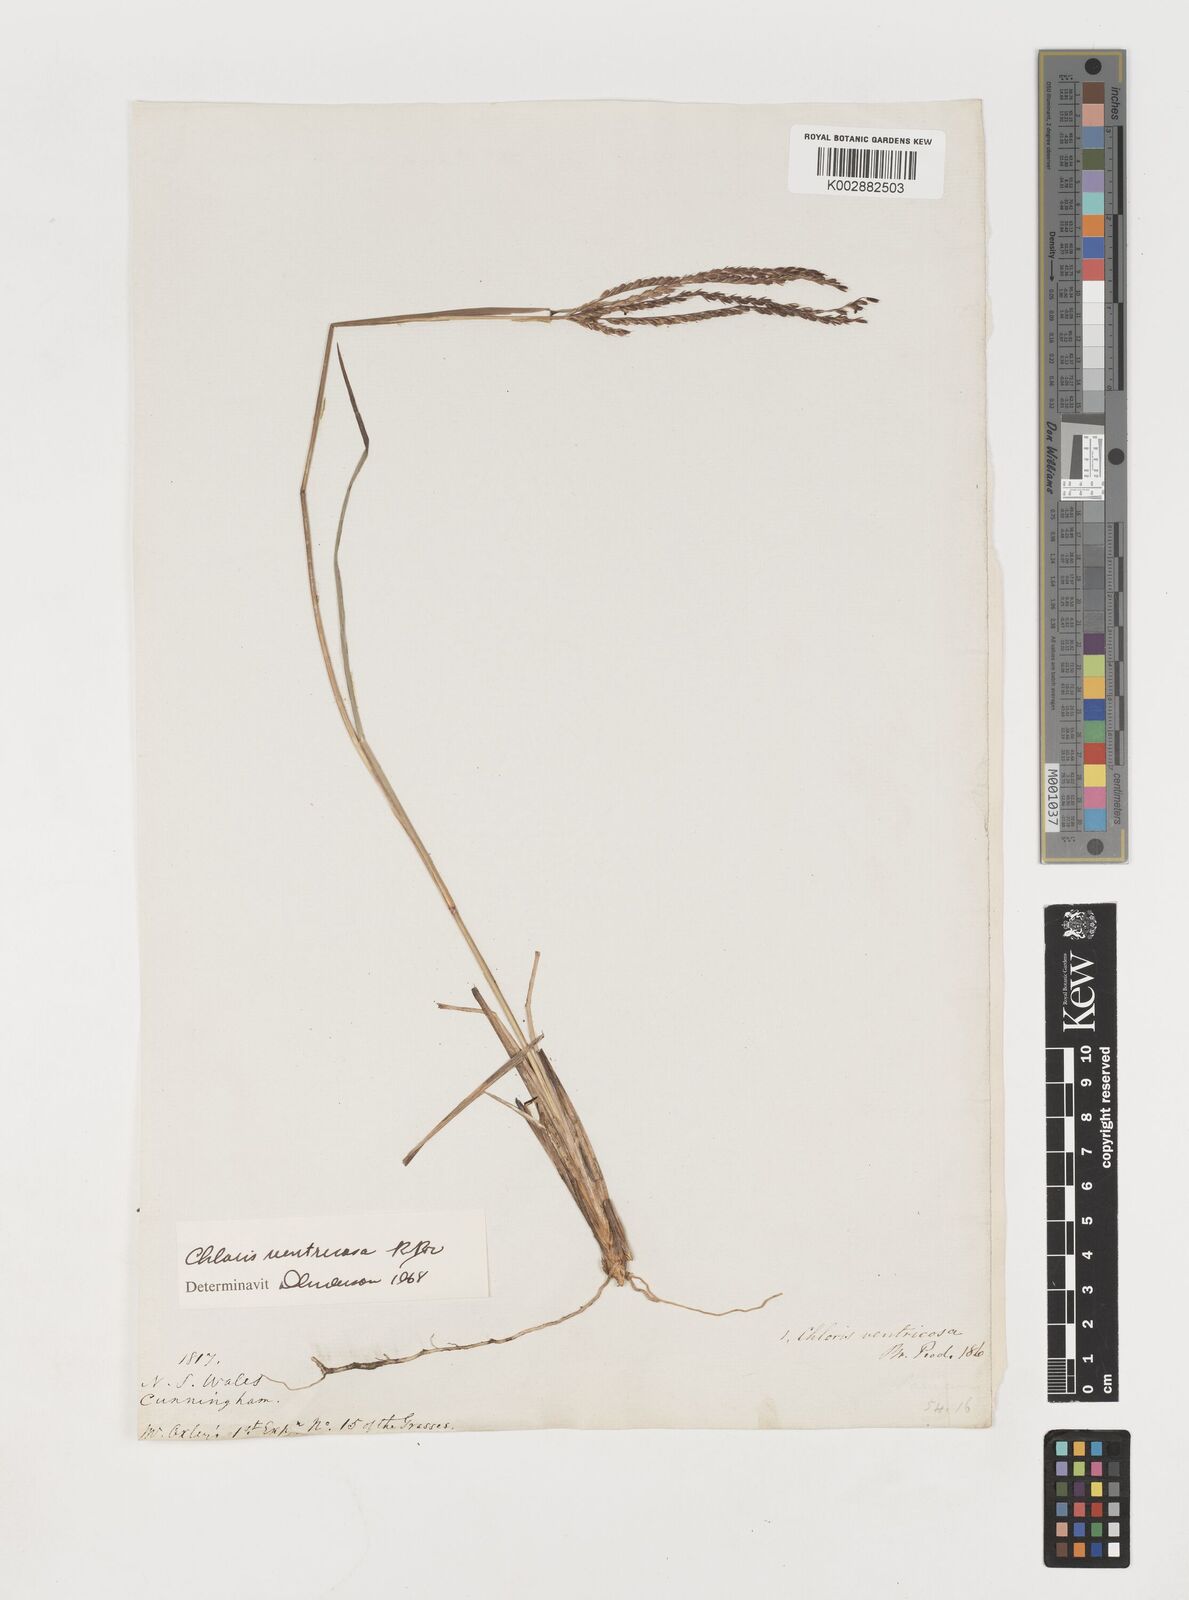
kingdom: Plantae
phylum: Tracheophyta
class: Liliopsida
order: Poales
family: Poaceae
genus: Chloris
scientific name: Chloris ventricosa
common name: Australian windmill grass
